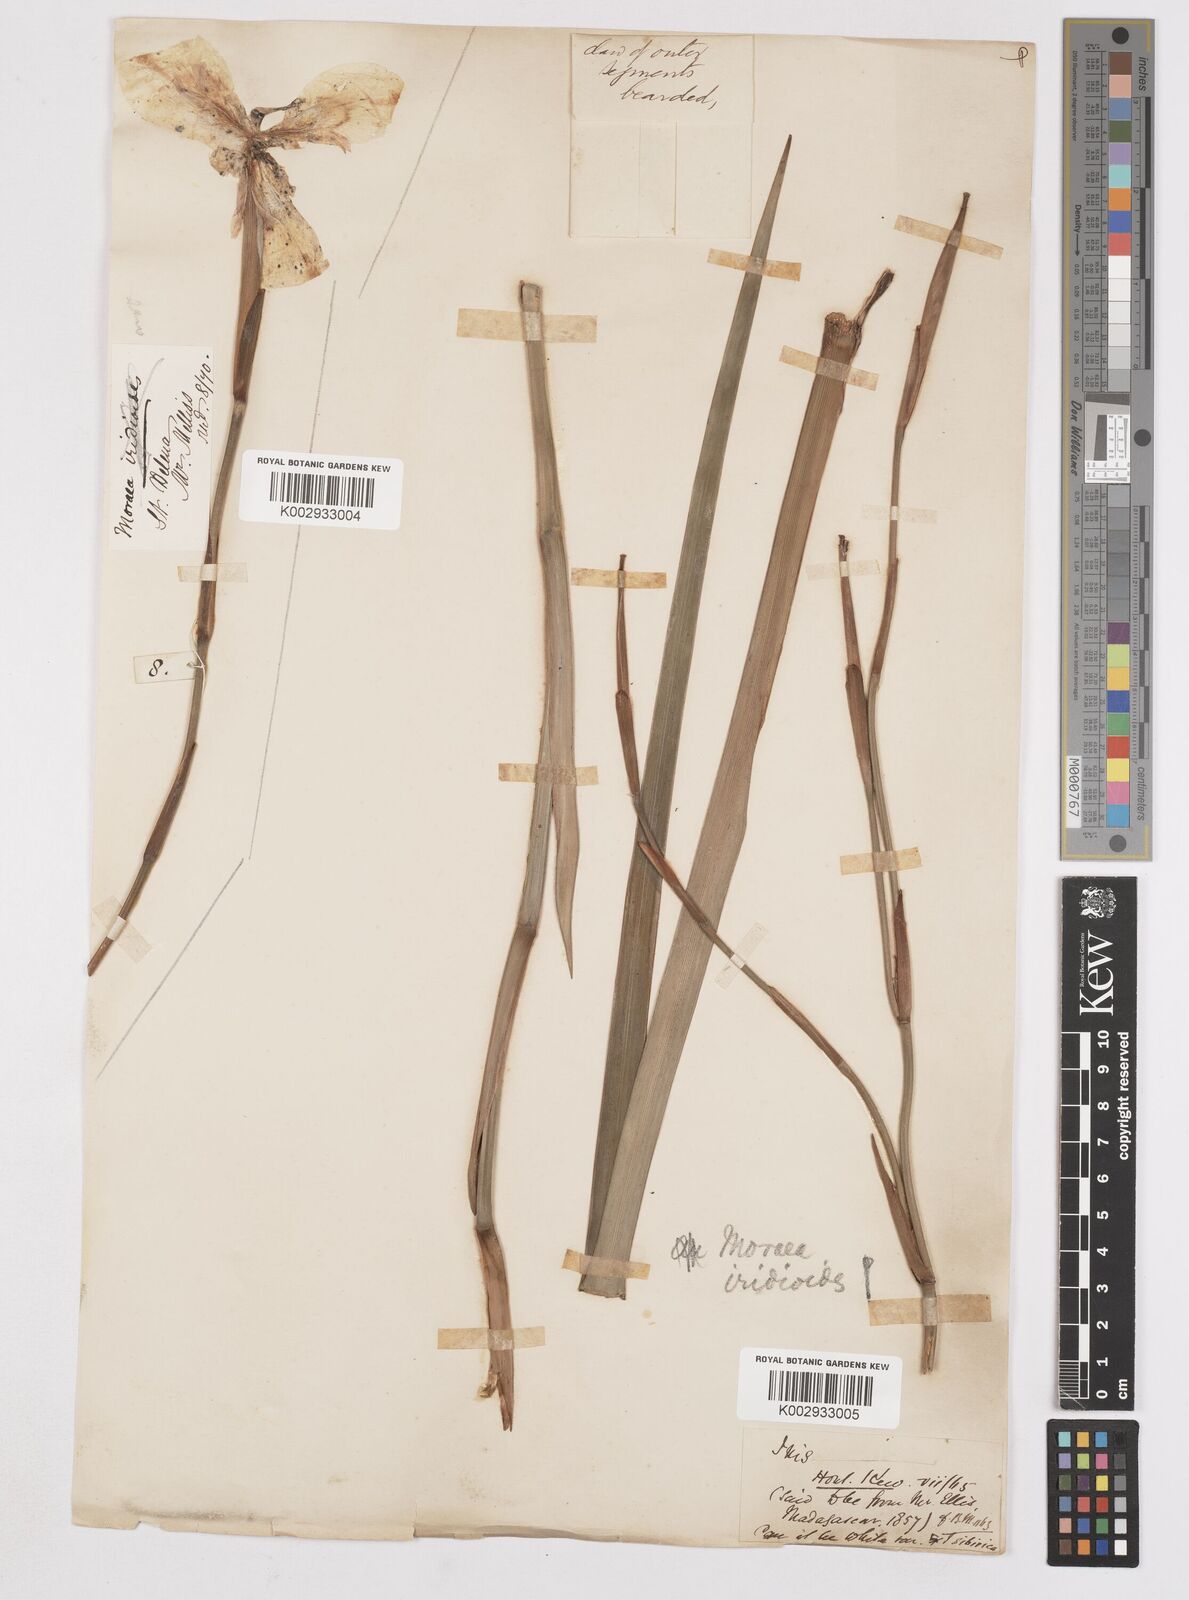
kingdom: Plantae
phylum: Tracheophyta
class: Liliopsida
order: Asparagales
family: Iridaceae
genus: Dietes
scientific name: Dietes grandiflora
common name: Wild iris
